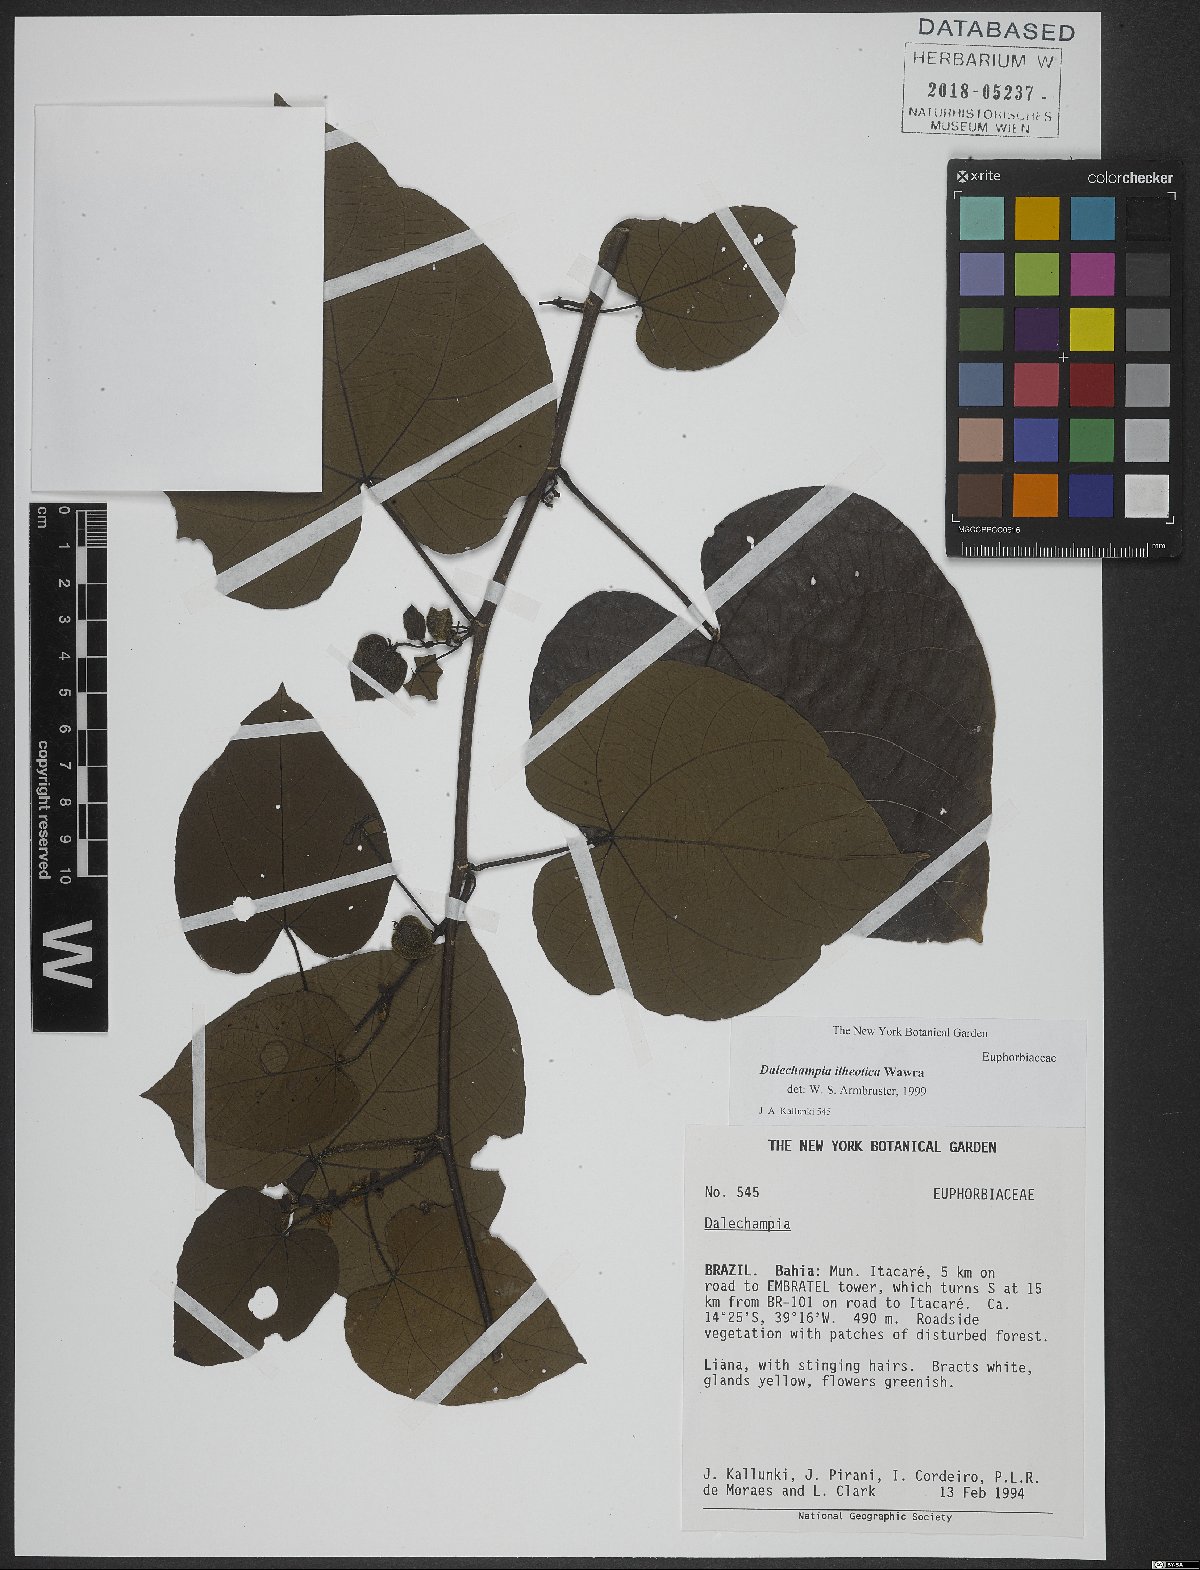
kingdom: Plantae
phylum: Tracheophyta
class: Magnoliopsida
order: Malpighiales
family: Euphorbiaceae
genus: Dalechampia
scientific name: Dalechampia ilheotica
